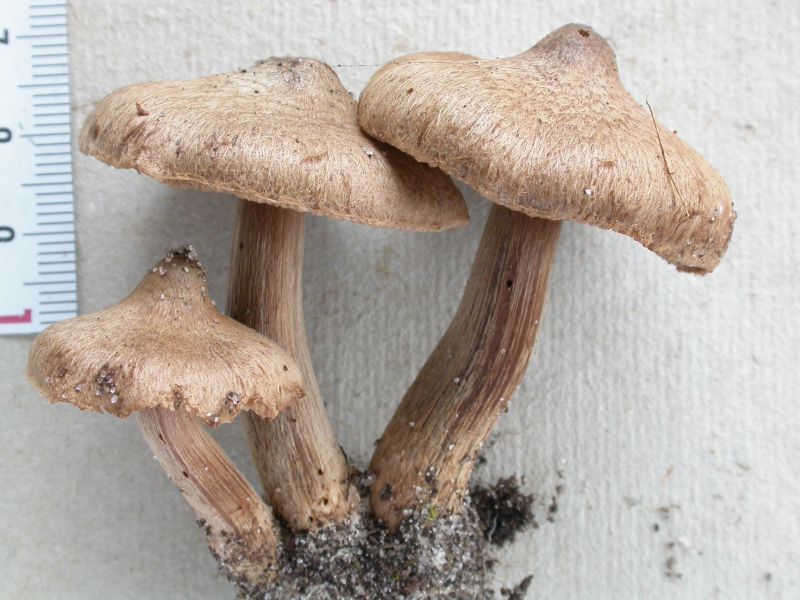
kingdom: Fungi
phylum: Basidiomycota
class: Agaricomycetes
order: Agaricales
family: Inocybaceae
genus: Inocybe
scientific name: Inocybe subcarpta
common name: plantage-trævlhat
